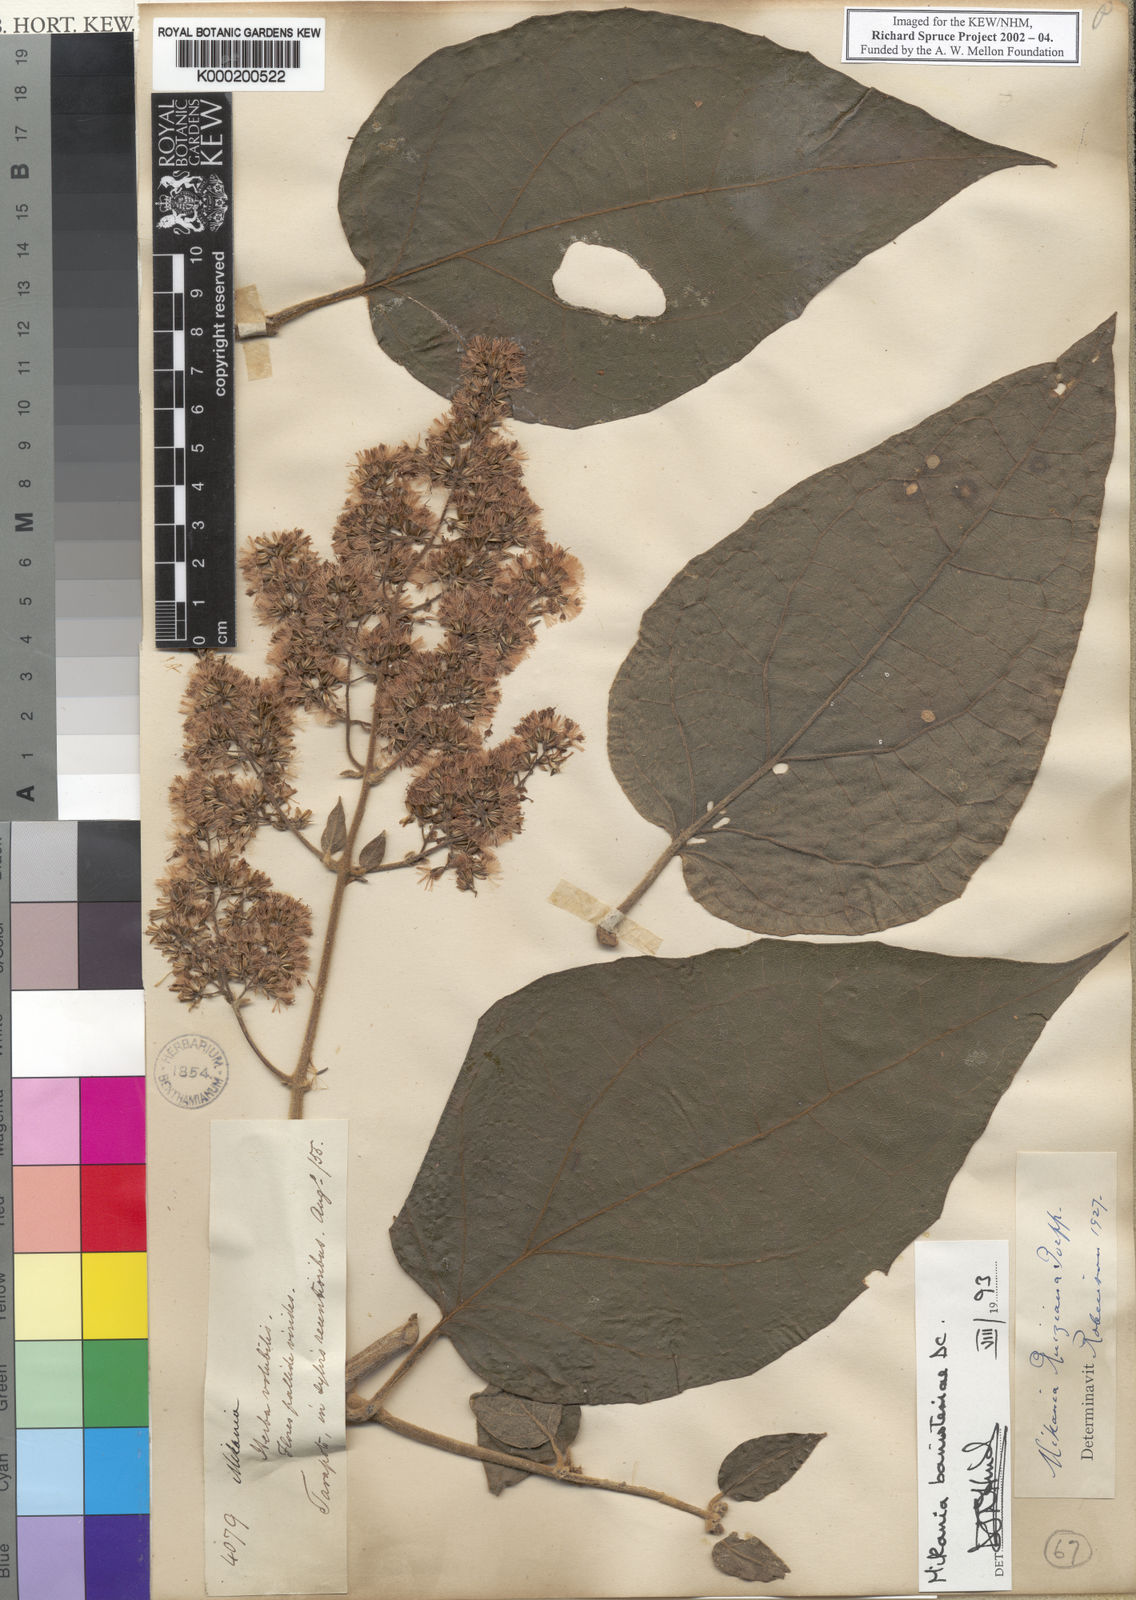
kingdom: Plantae
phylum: Tracheophyta
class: Magnoliopsida
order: Asterales
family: Asteraceae
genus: Mikania
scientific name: Mikania banisteriae
